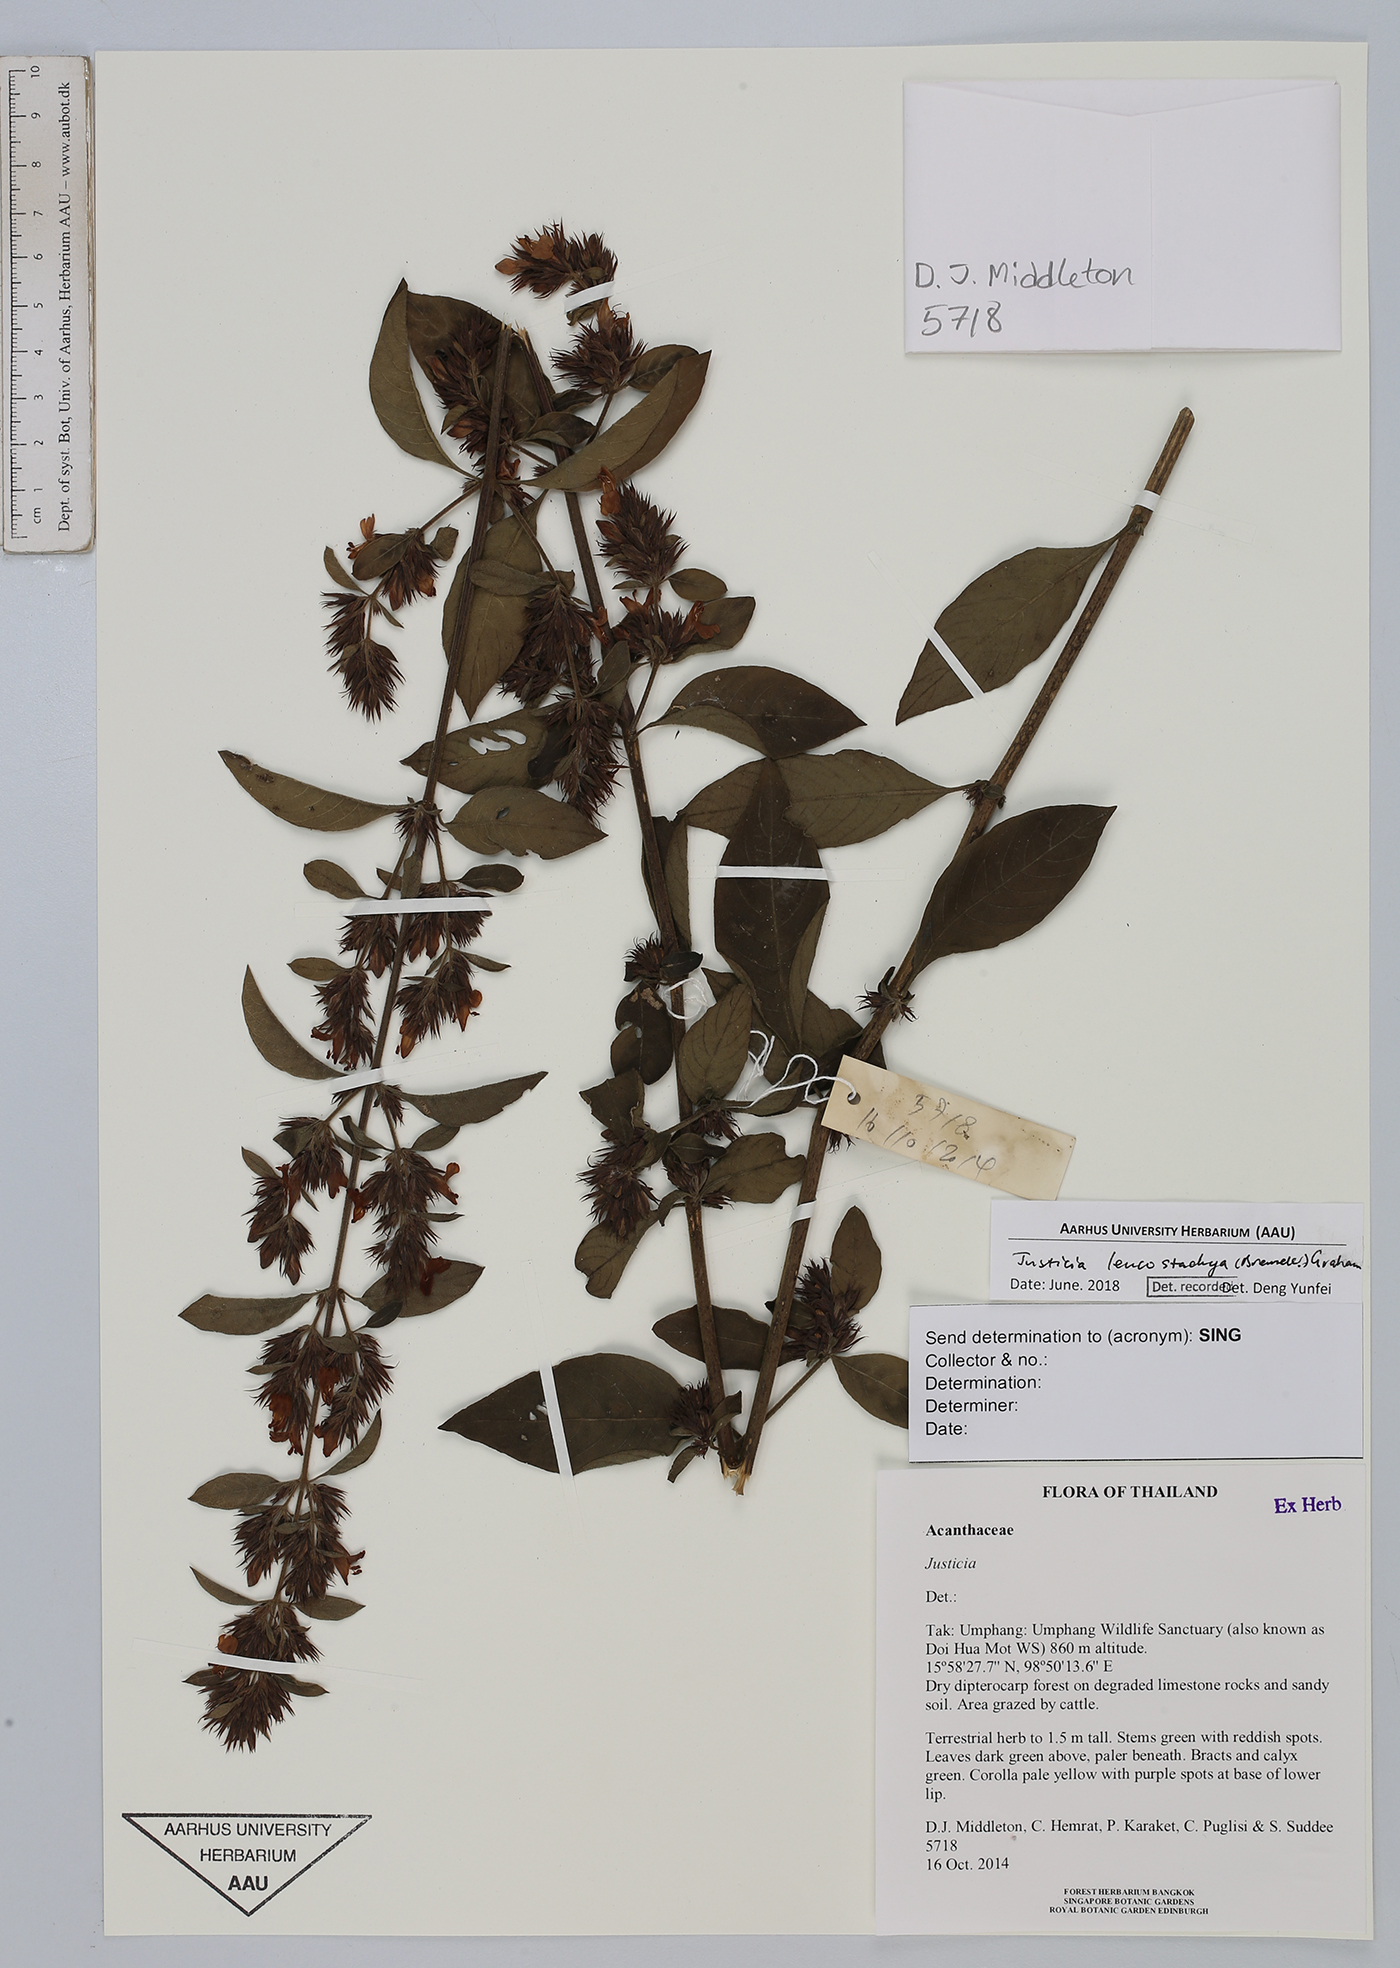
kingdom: Plantae
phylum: Tracheophyta
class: Magnoliopsida
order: Lamiales
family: Acanthaceae
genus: Justicia
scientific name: Justicia leucostachya
